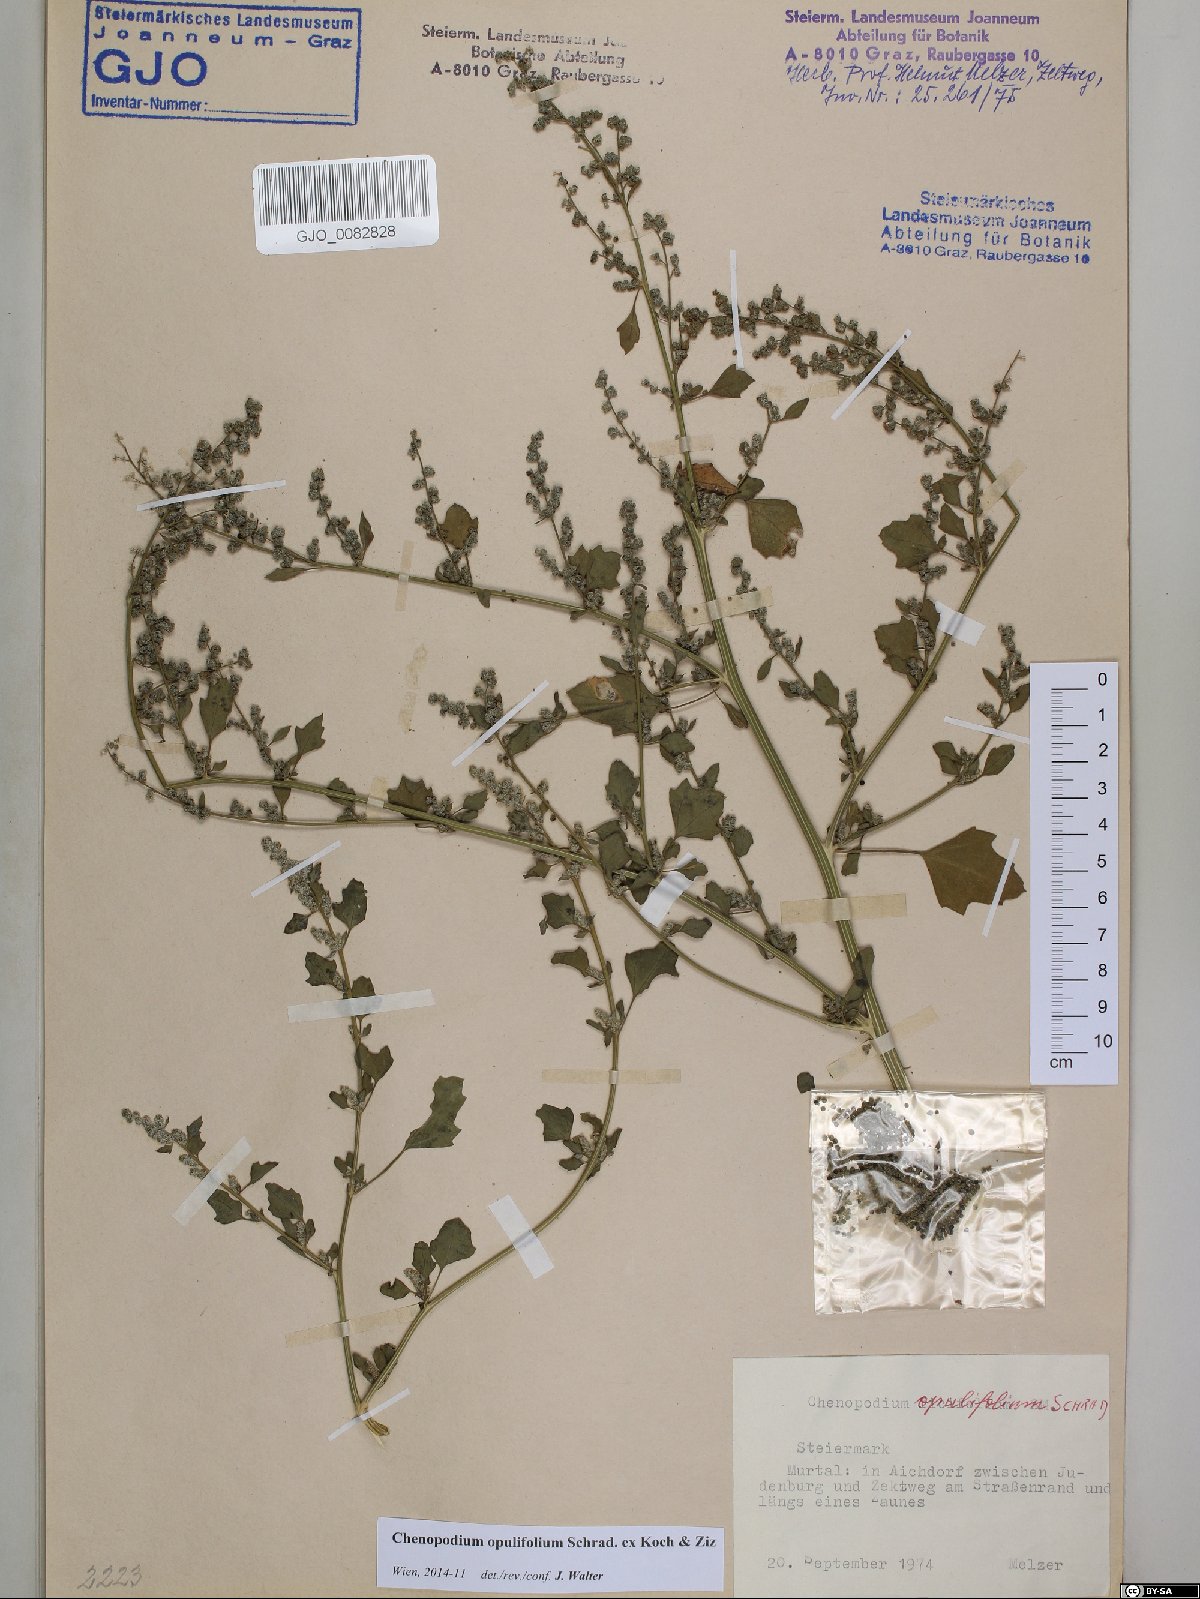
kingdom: Plantae
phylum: Tracheophyta
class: Magnoliopsida
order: Caryophyllales
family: Amaranthaceae
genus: Chenopodium
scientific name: Chenopodium opulifolium
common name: Grey goosefoot
